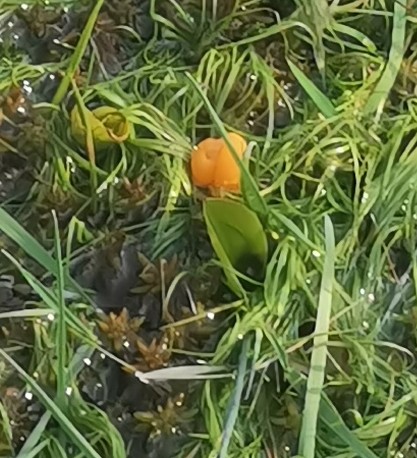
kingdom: Fungi
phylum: Ascomycota
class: Leotiomycetes
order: Helotiales
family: Cenangiaceae
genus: Mitrula
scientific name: Mitrula paludosa
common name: gul nøkketunge
